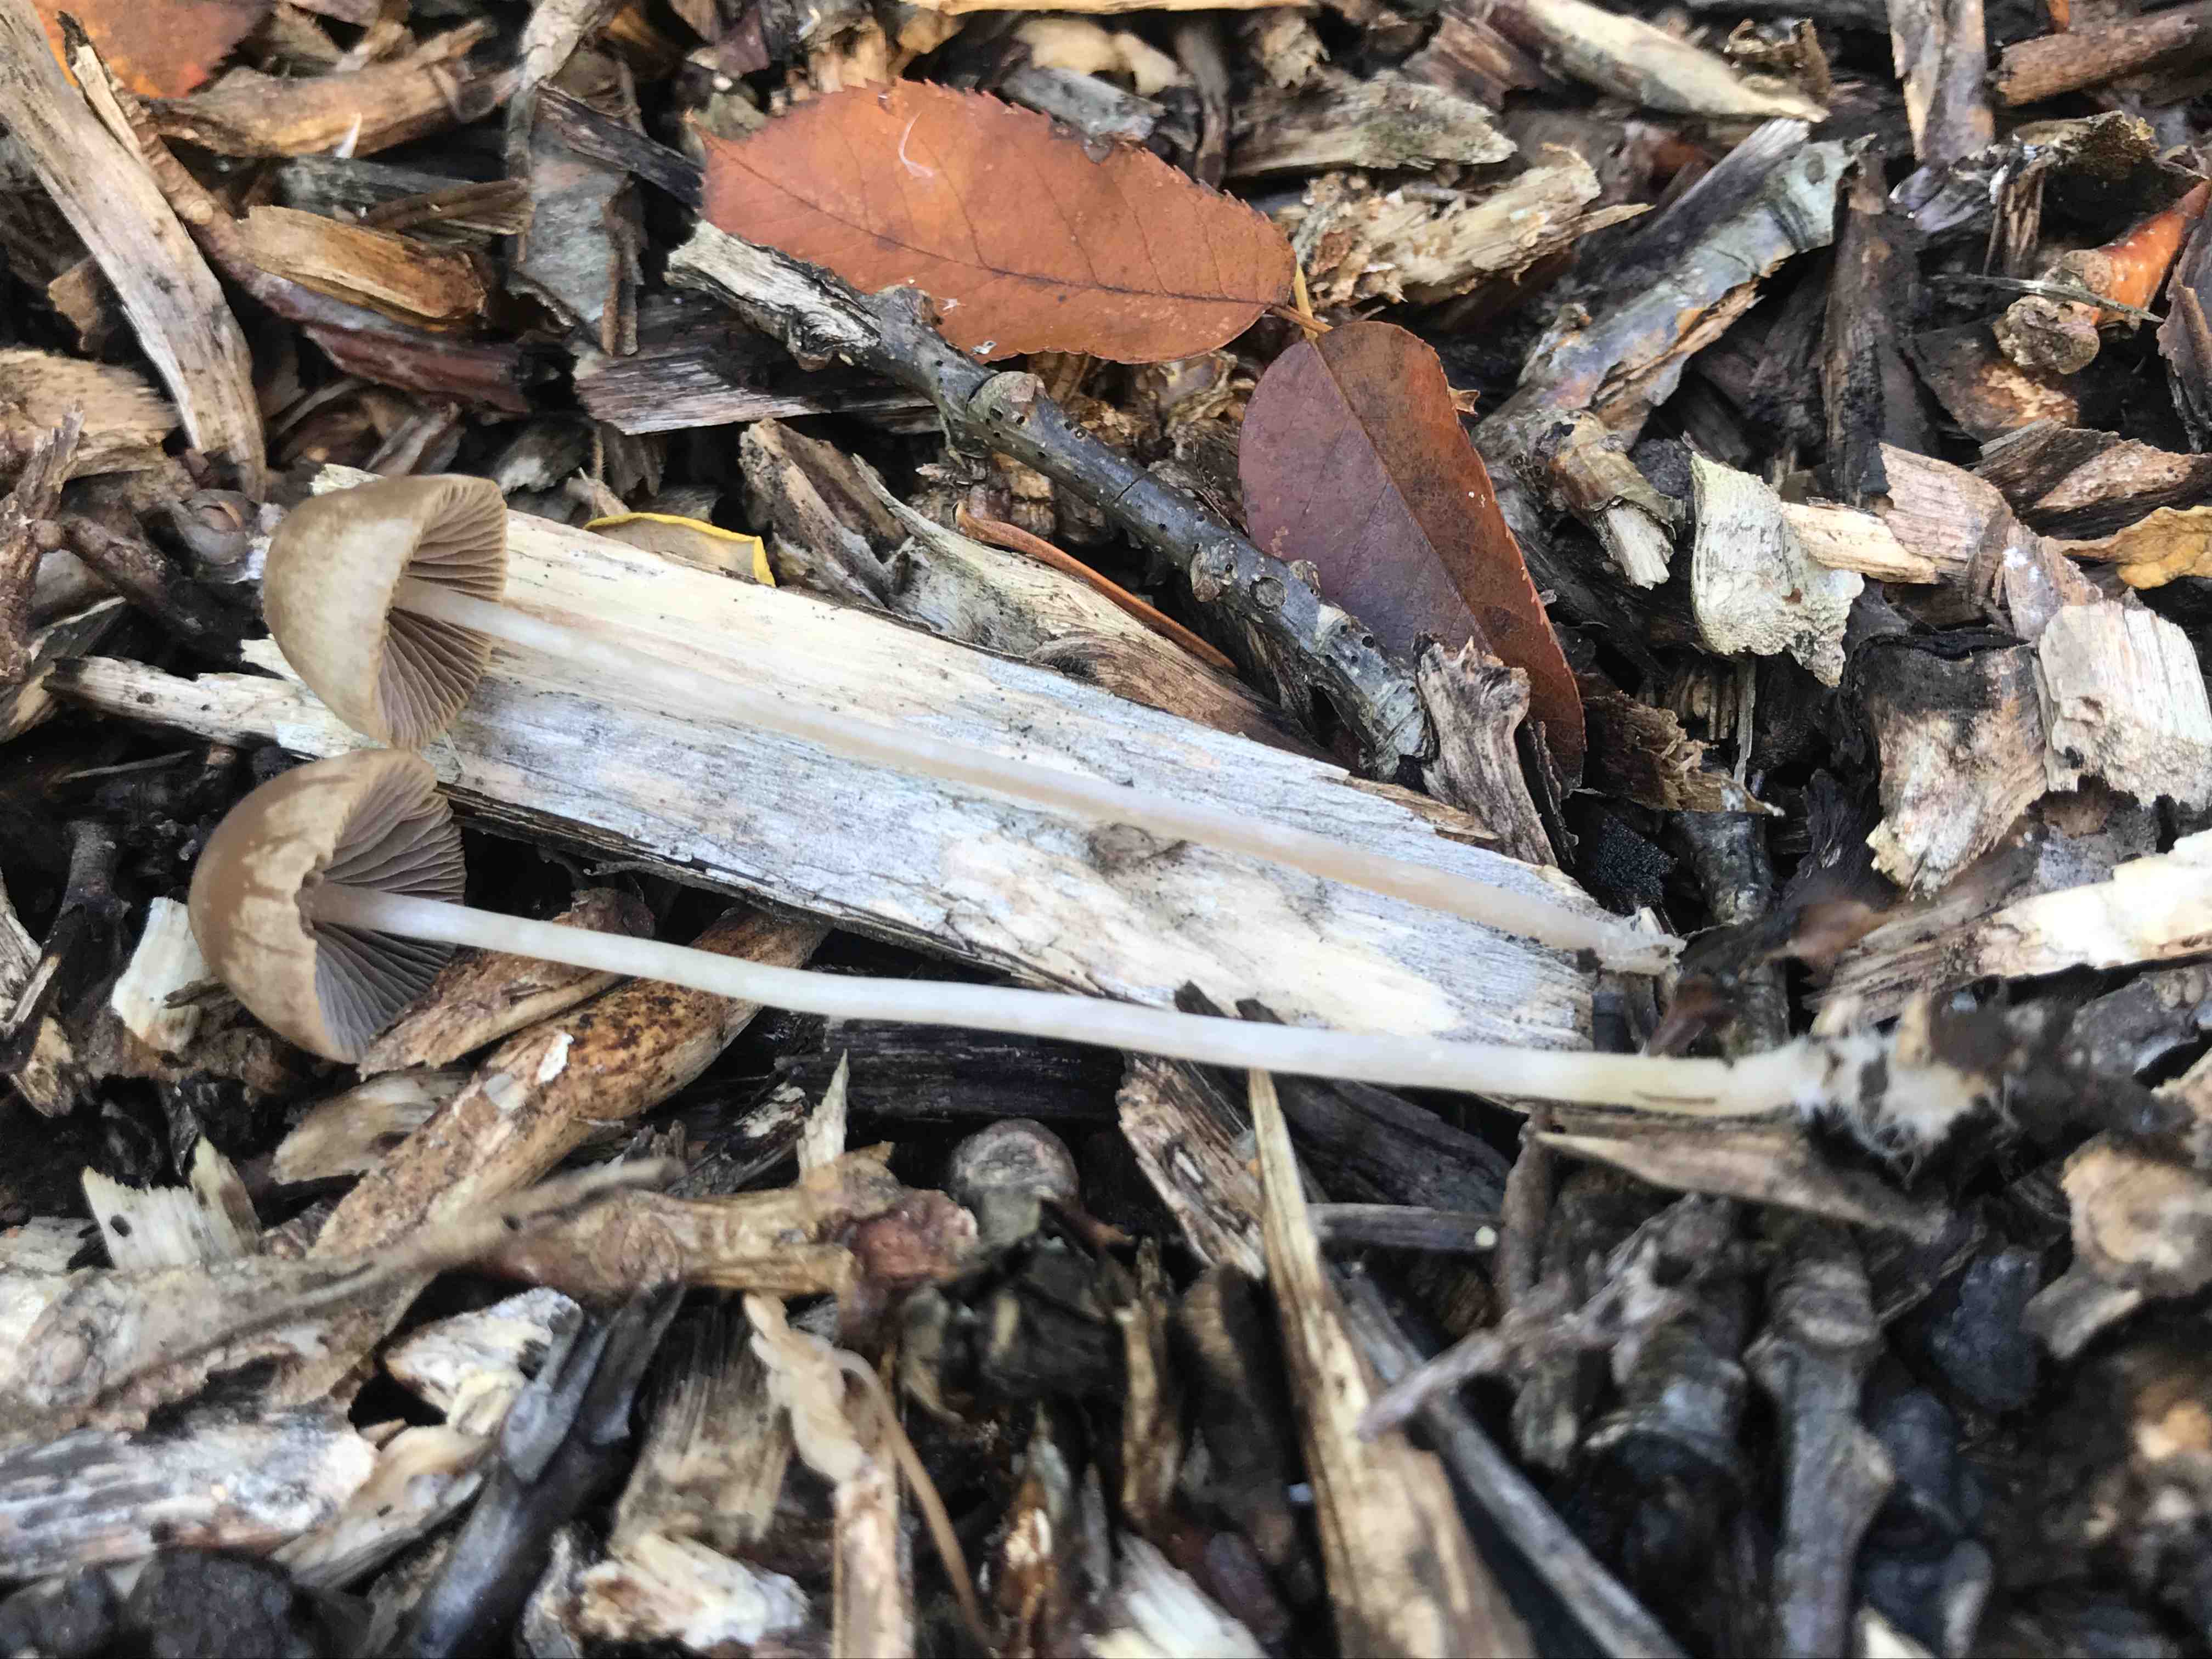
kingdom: Fungi
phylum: Basidiomycota
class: Agaricomycetes
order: Agaricales
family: Psathyrellaceae
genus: Psathyrella
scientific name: Psathyrella
